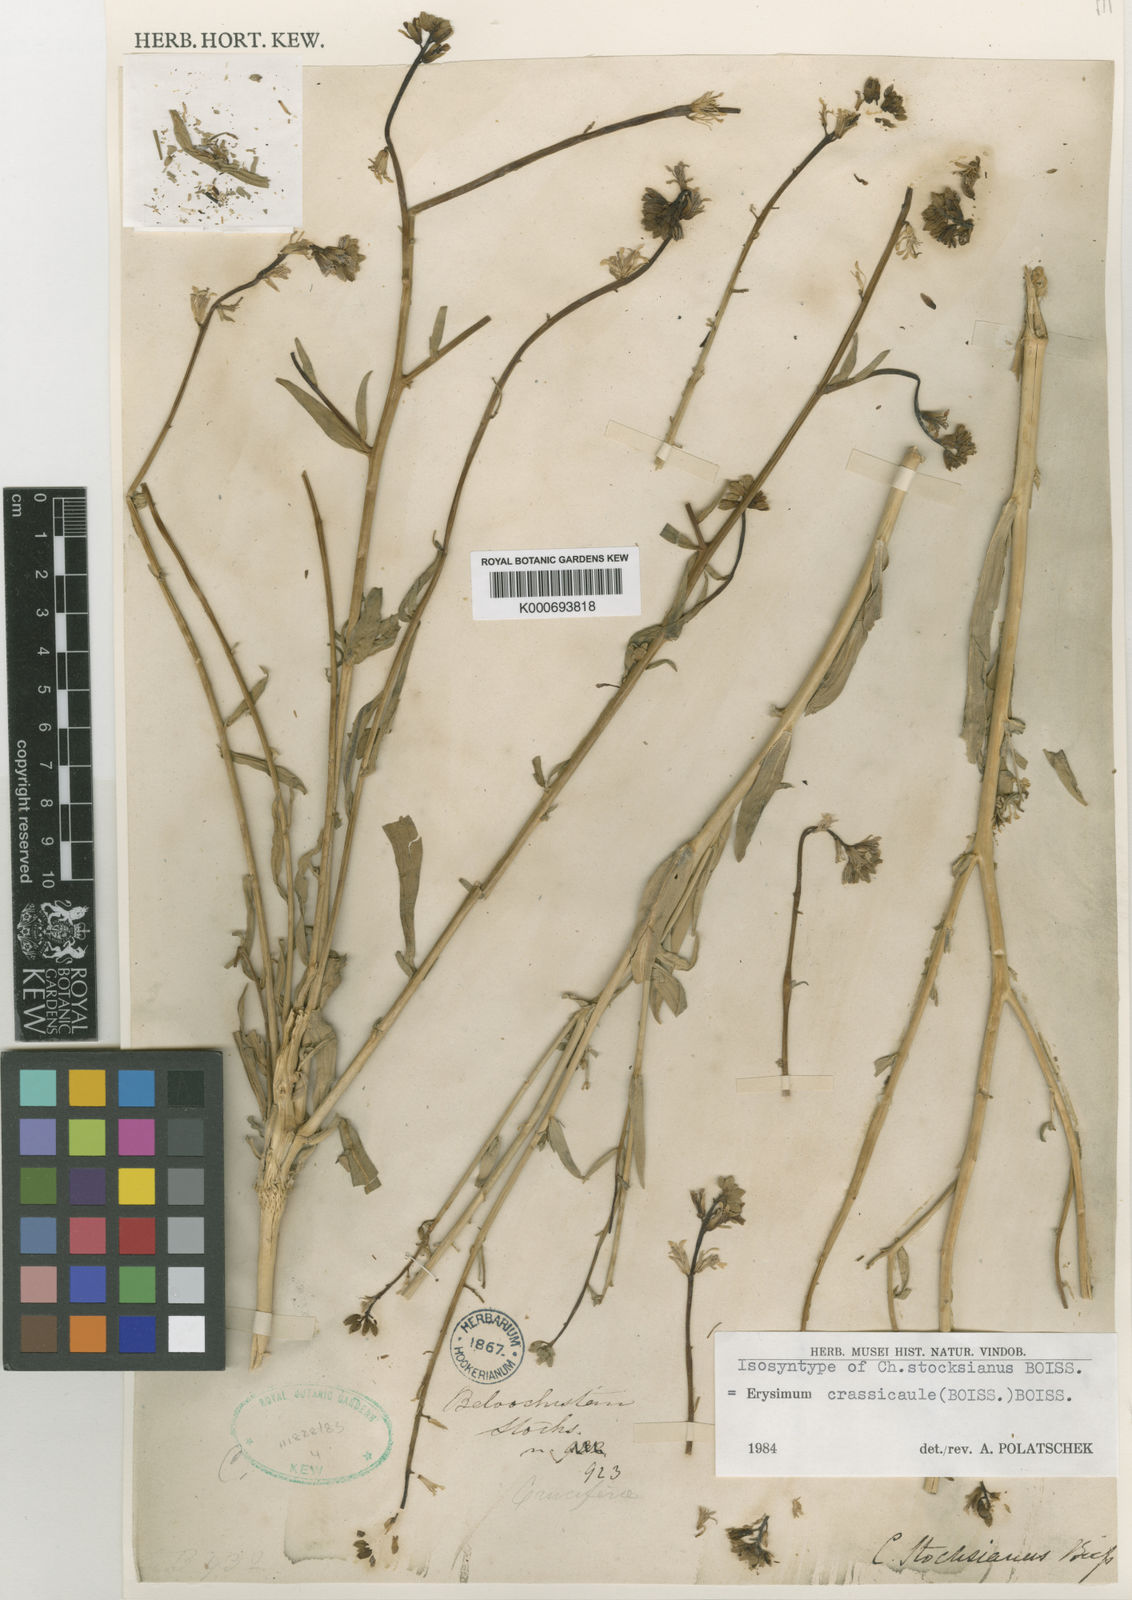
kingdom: Plantae
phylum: Tracheophyta
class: Magnoliopsida
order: Brassicales
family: Brassicaceae
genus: Erysimum
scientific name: Erysimum crassicaule
